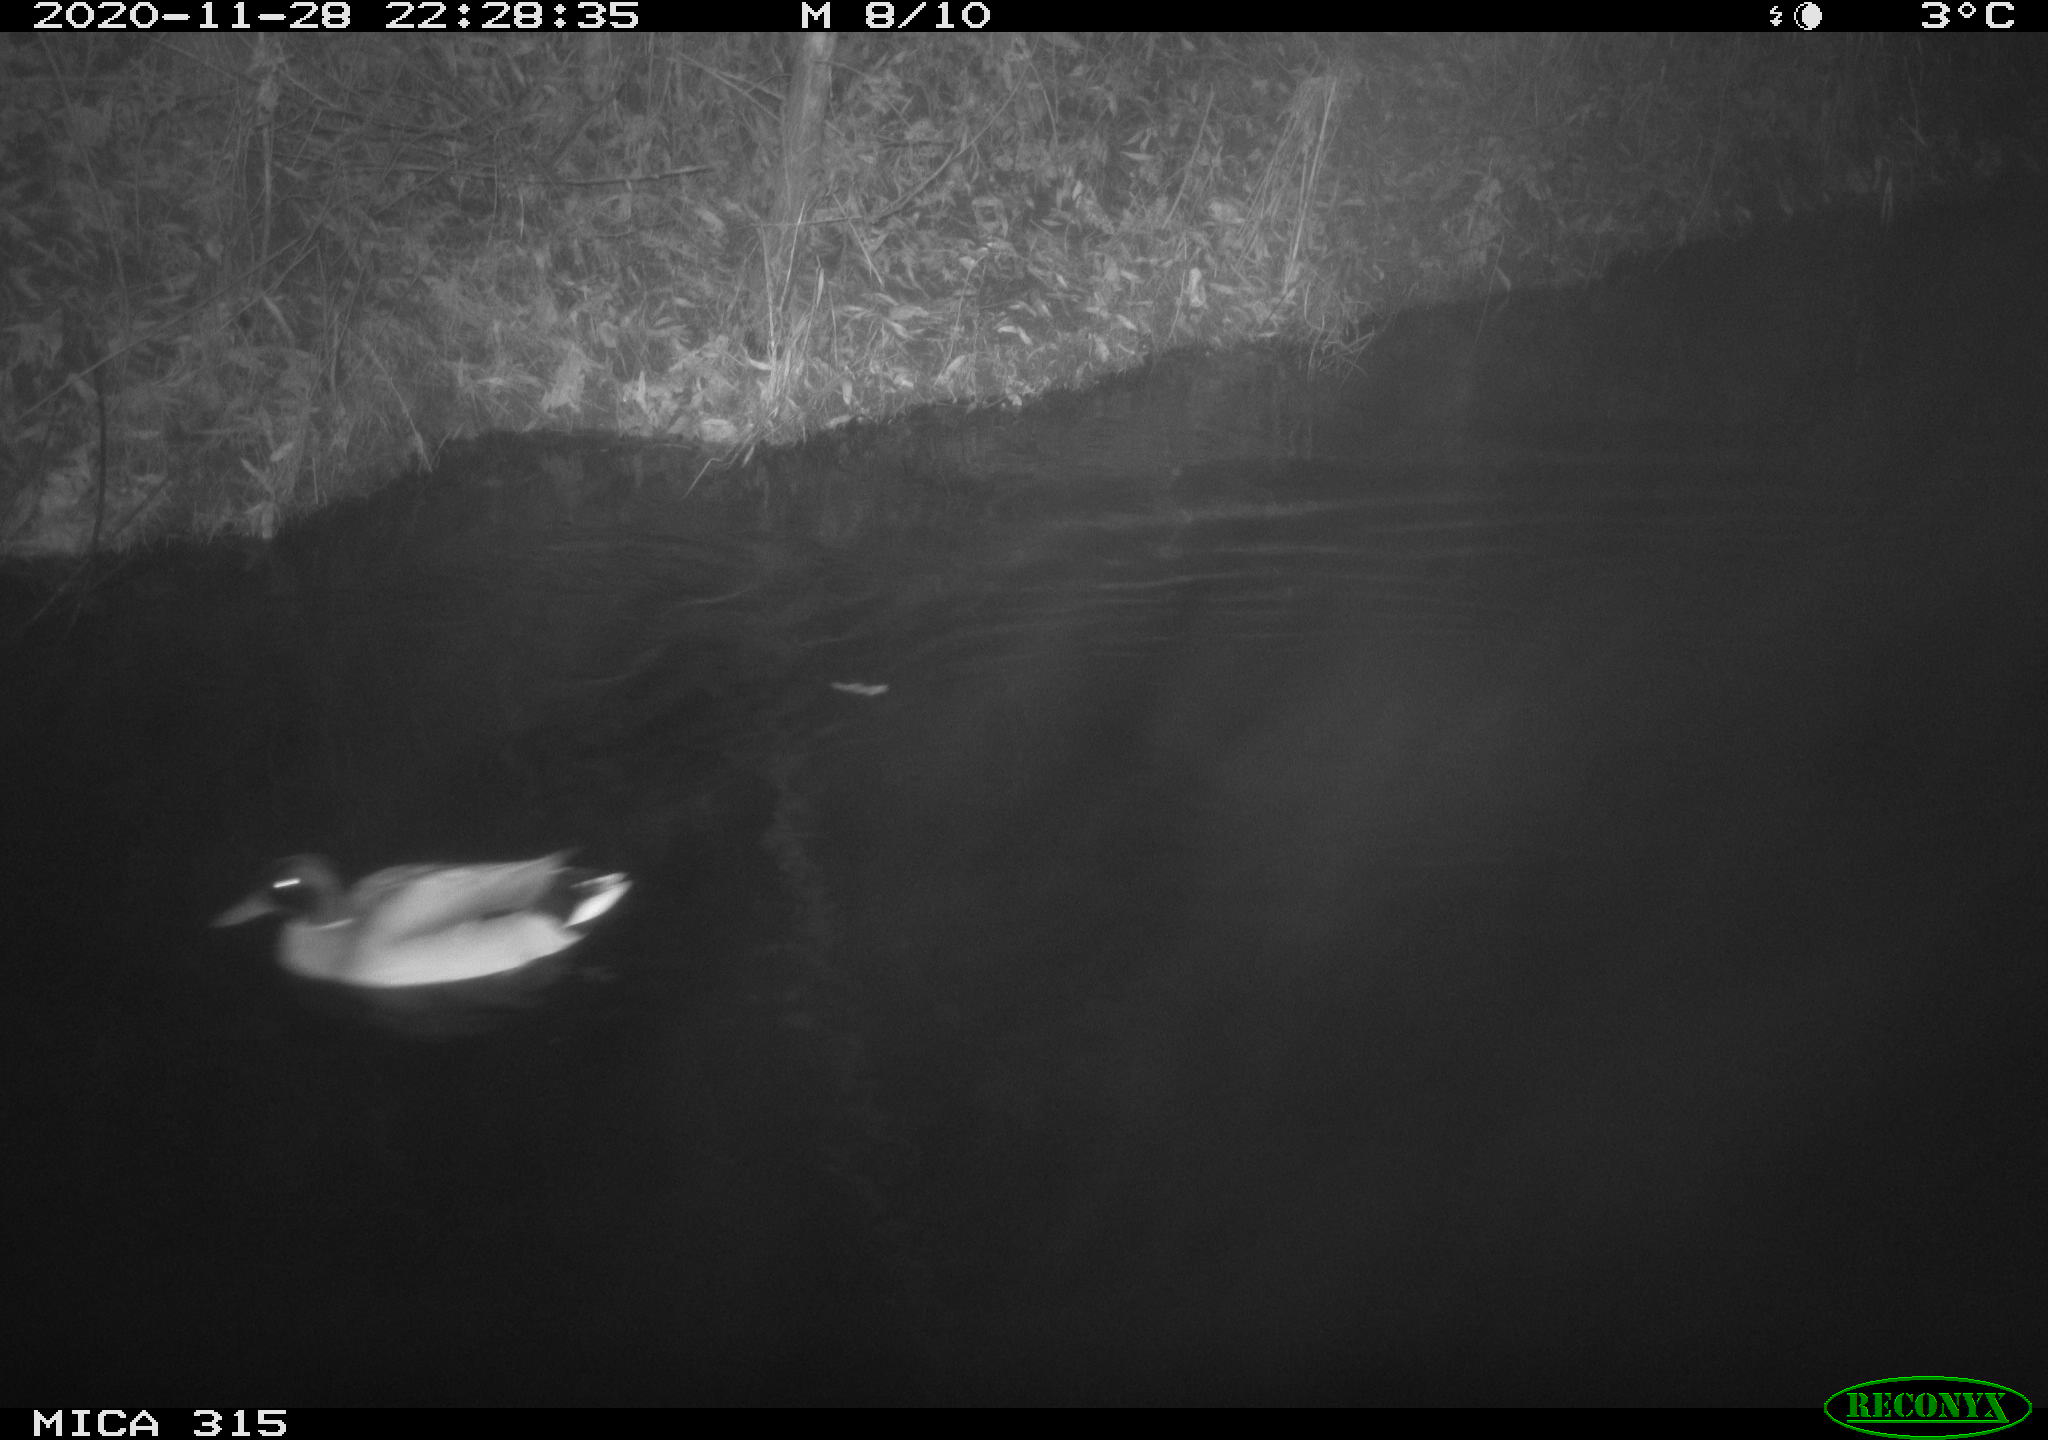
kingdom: Animalia
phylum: Chordata
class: Aves
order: Anseriformes
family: Anatidae
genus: Anas
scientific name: Anas platyrhynchos
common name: Mallard
